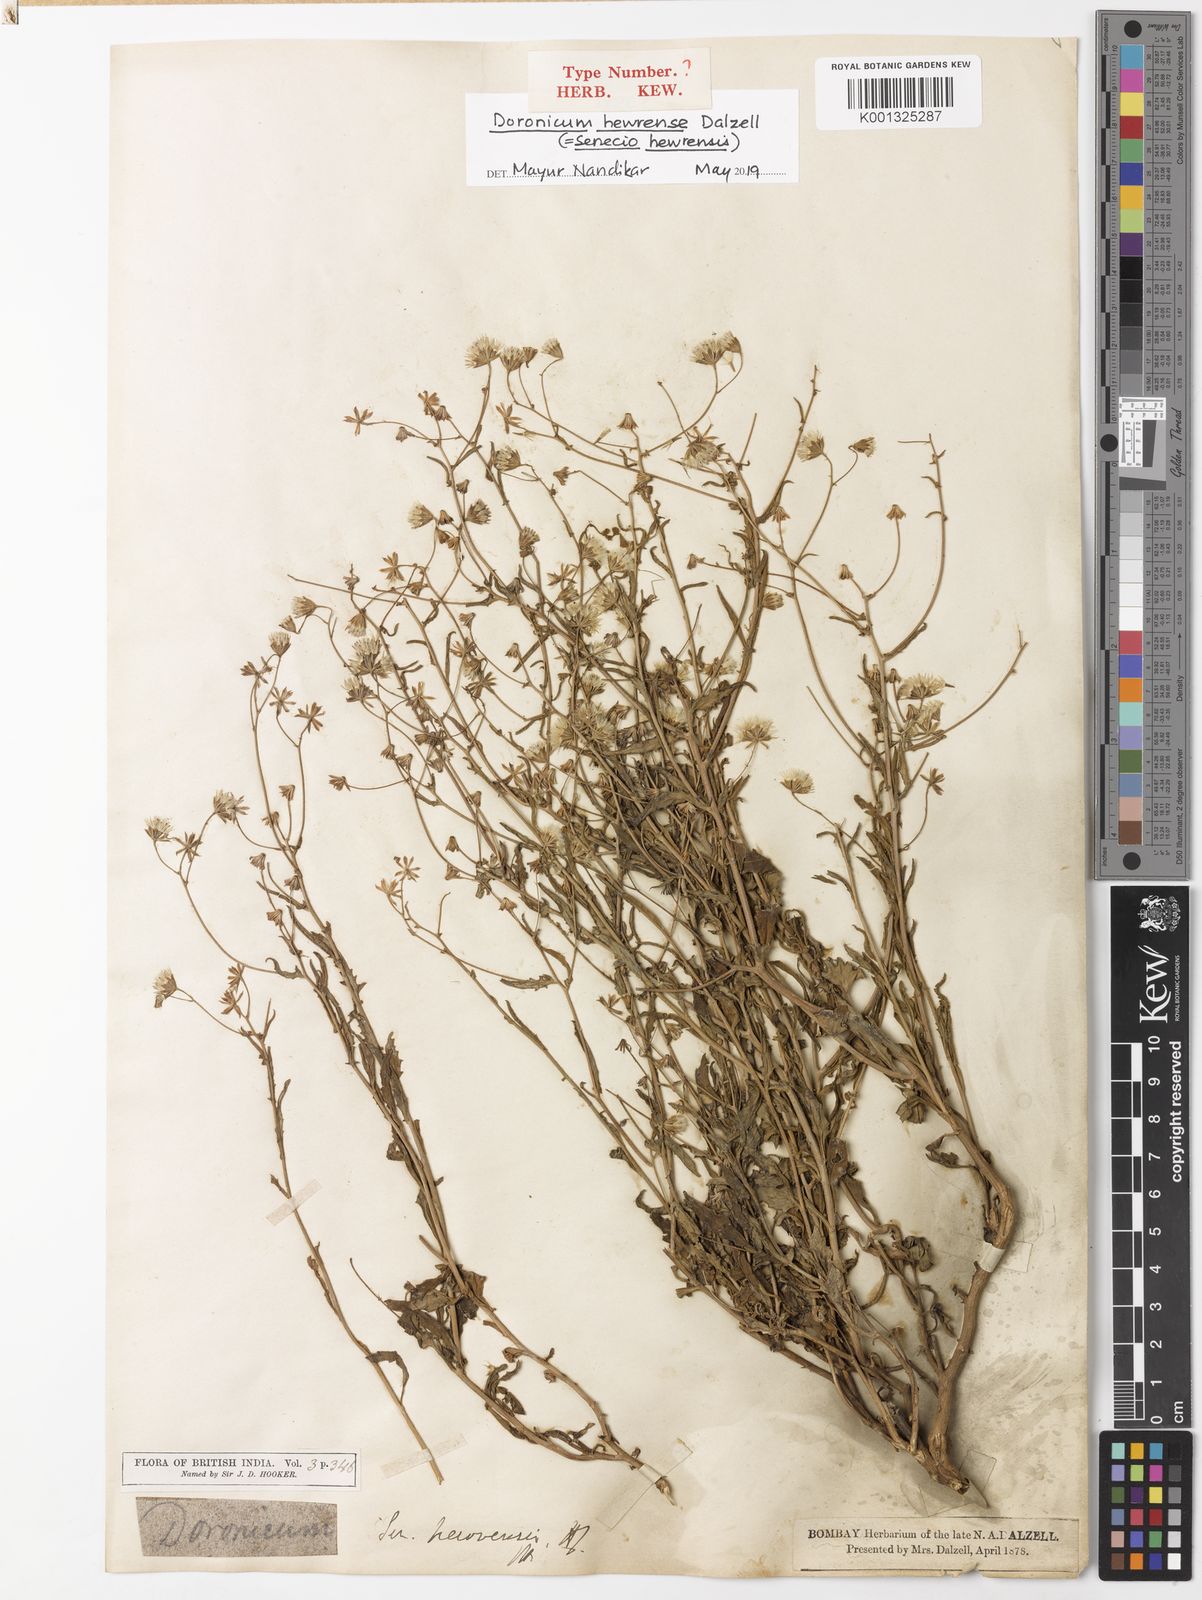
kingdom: Plantae
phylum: Tracheophyta
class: Magnoliopsida
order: Asterales
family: Asteraceae
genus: Senecio
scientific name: Senecio hewrensis
